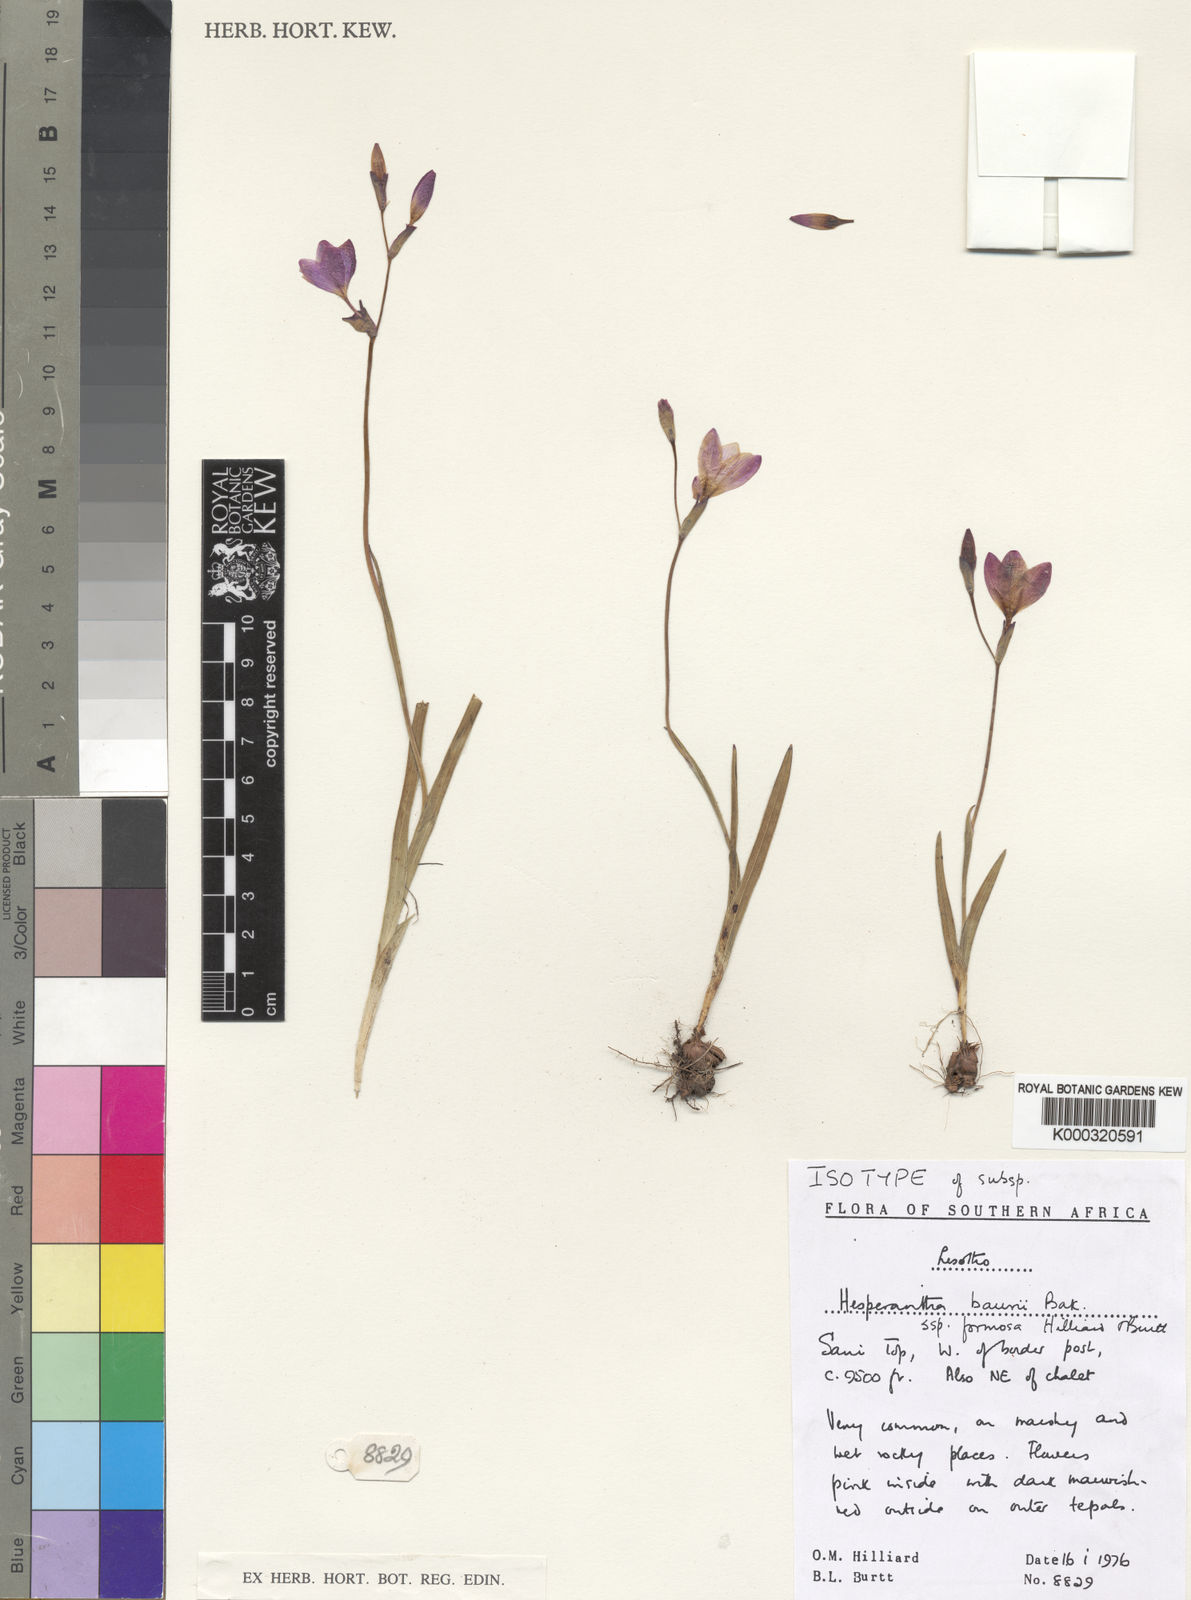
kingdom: Plantae
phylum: Tracheophyta
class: Liliopsida
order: Asparagales
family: Iridaceae
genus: Hesperantha
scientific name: Hesperantha baurii
